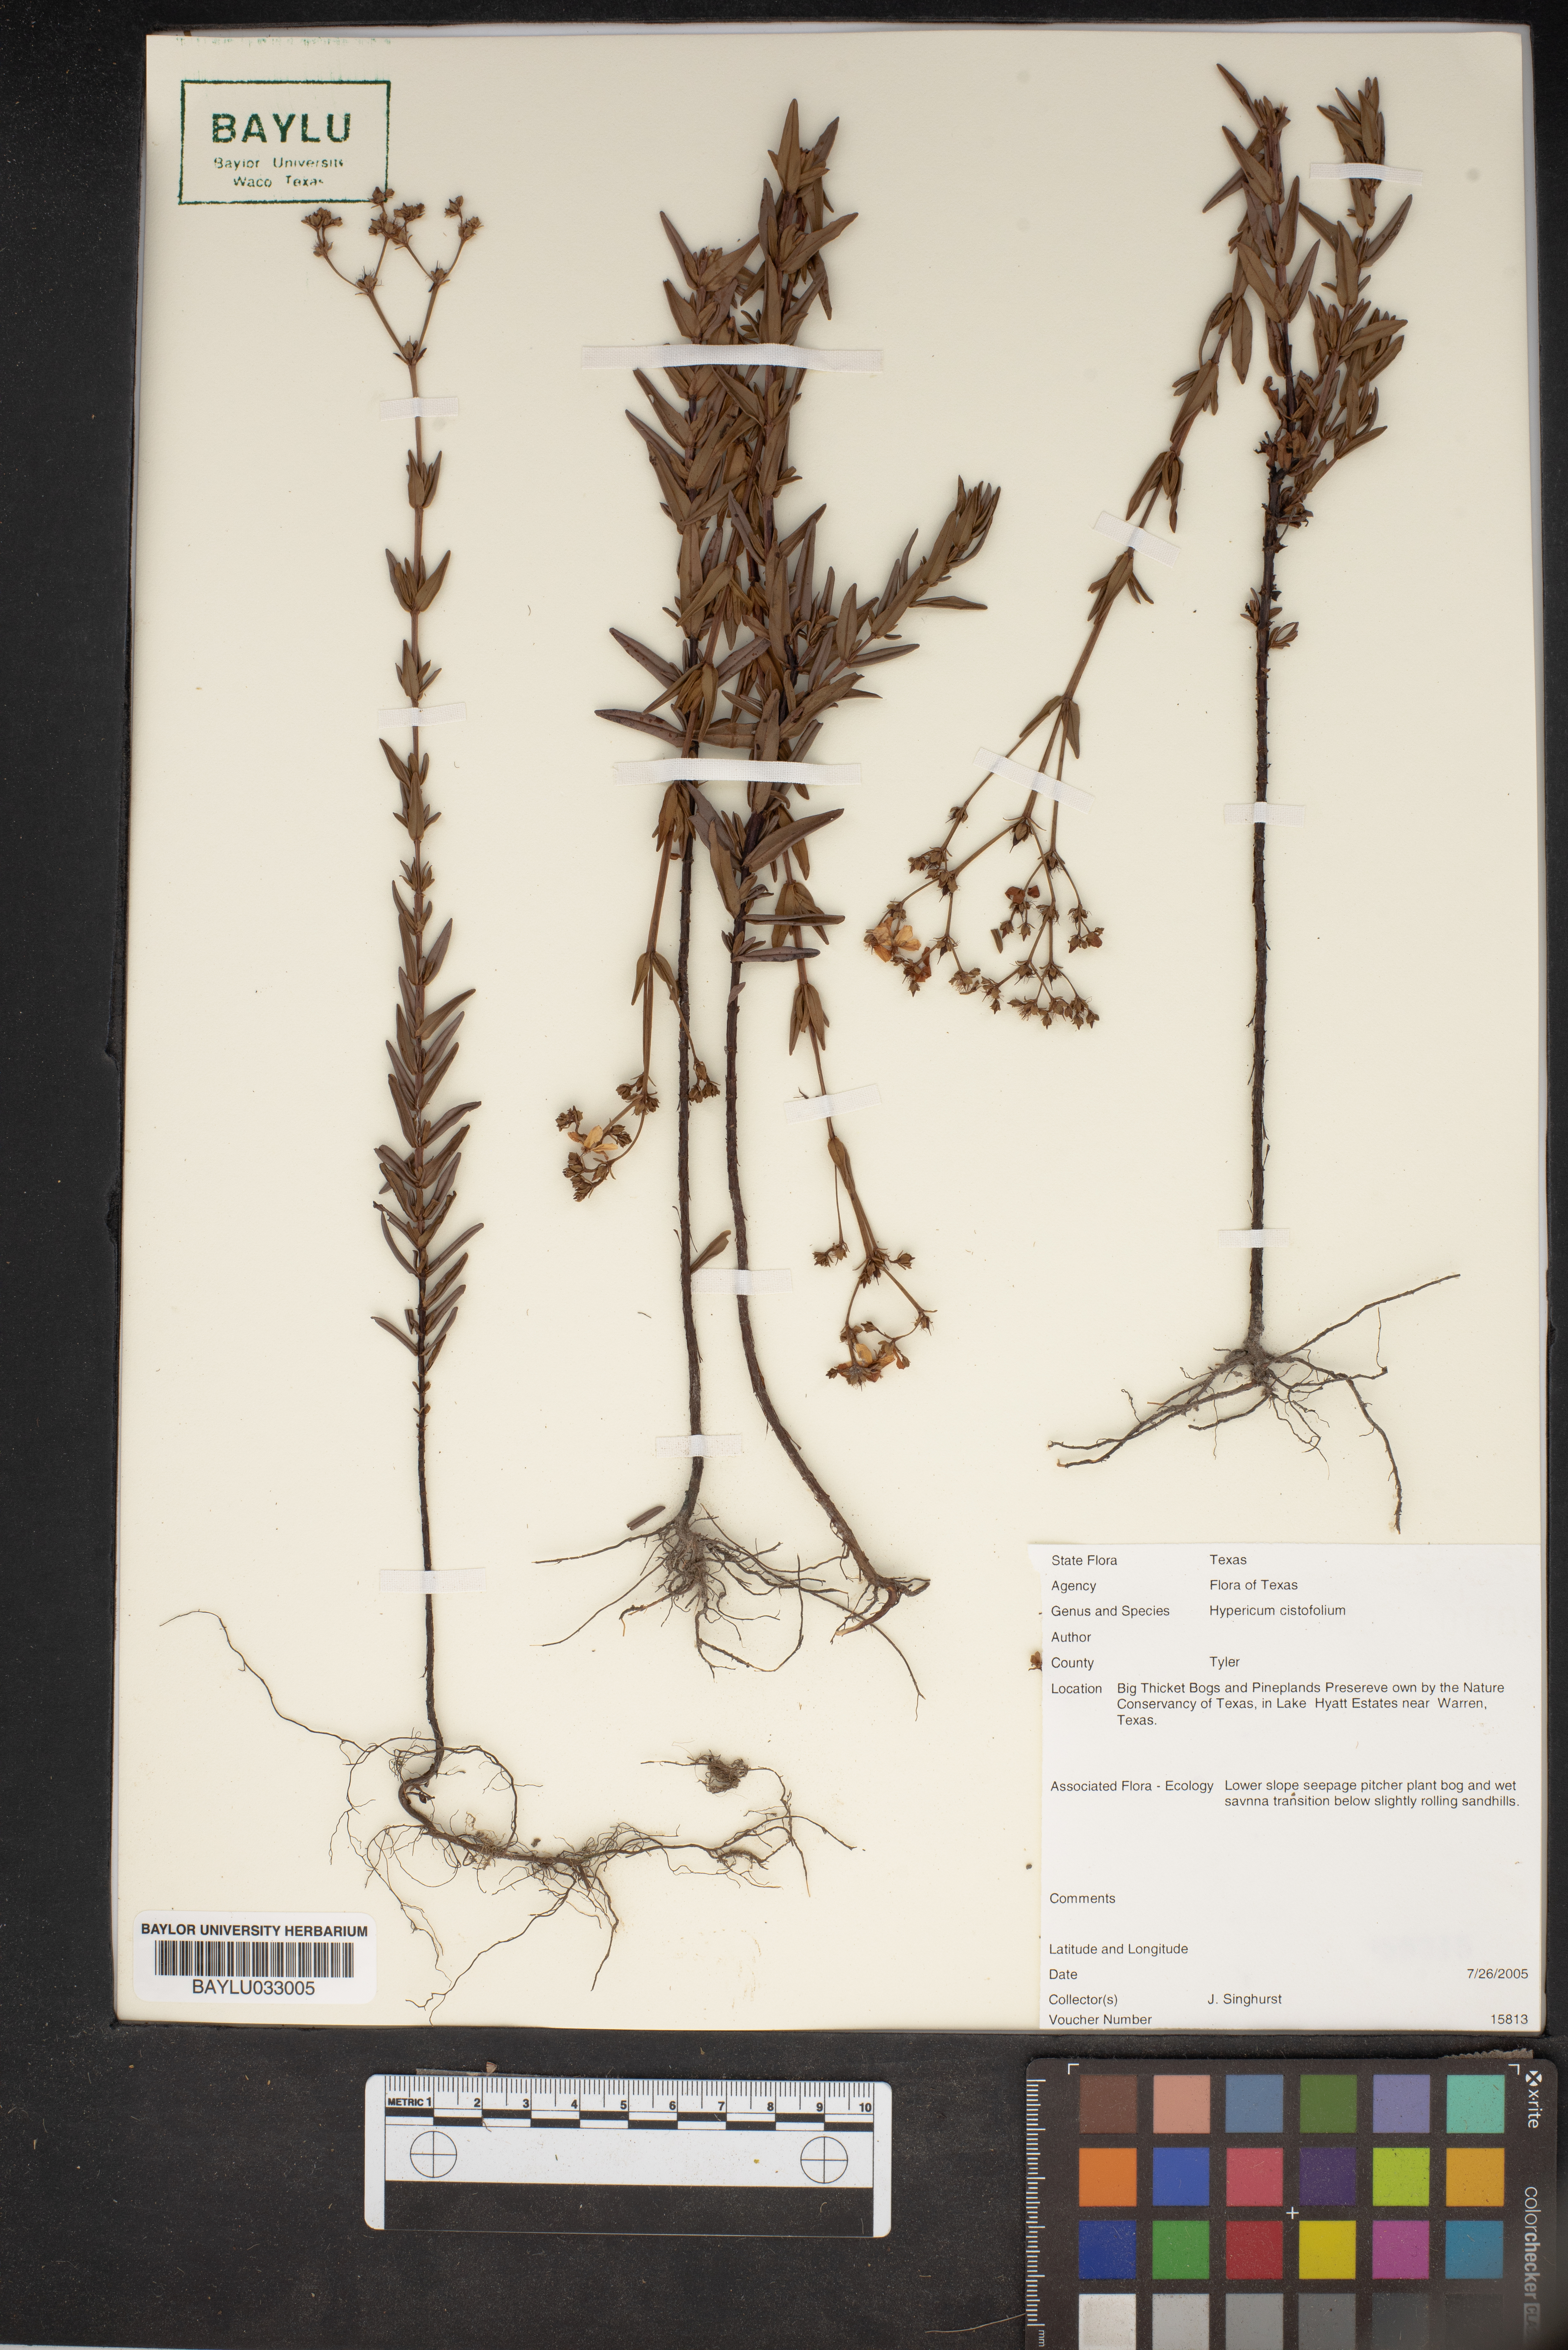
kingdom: Plantae
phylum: Tracheophyta
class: Magnoliopsida
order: Malpighiales
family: Hypericaceae
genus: Hypericum
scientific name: Hypericum cistifolium
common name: Round-pod st. john's-wort
